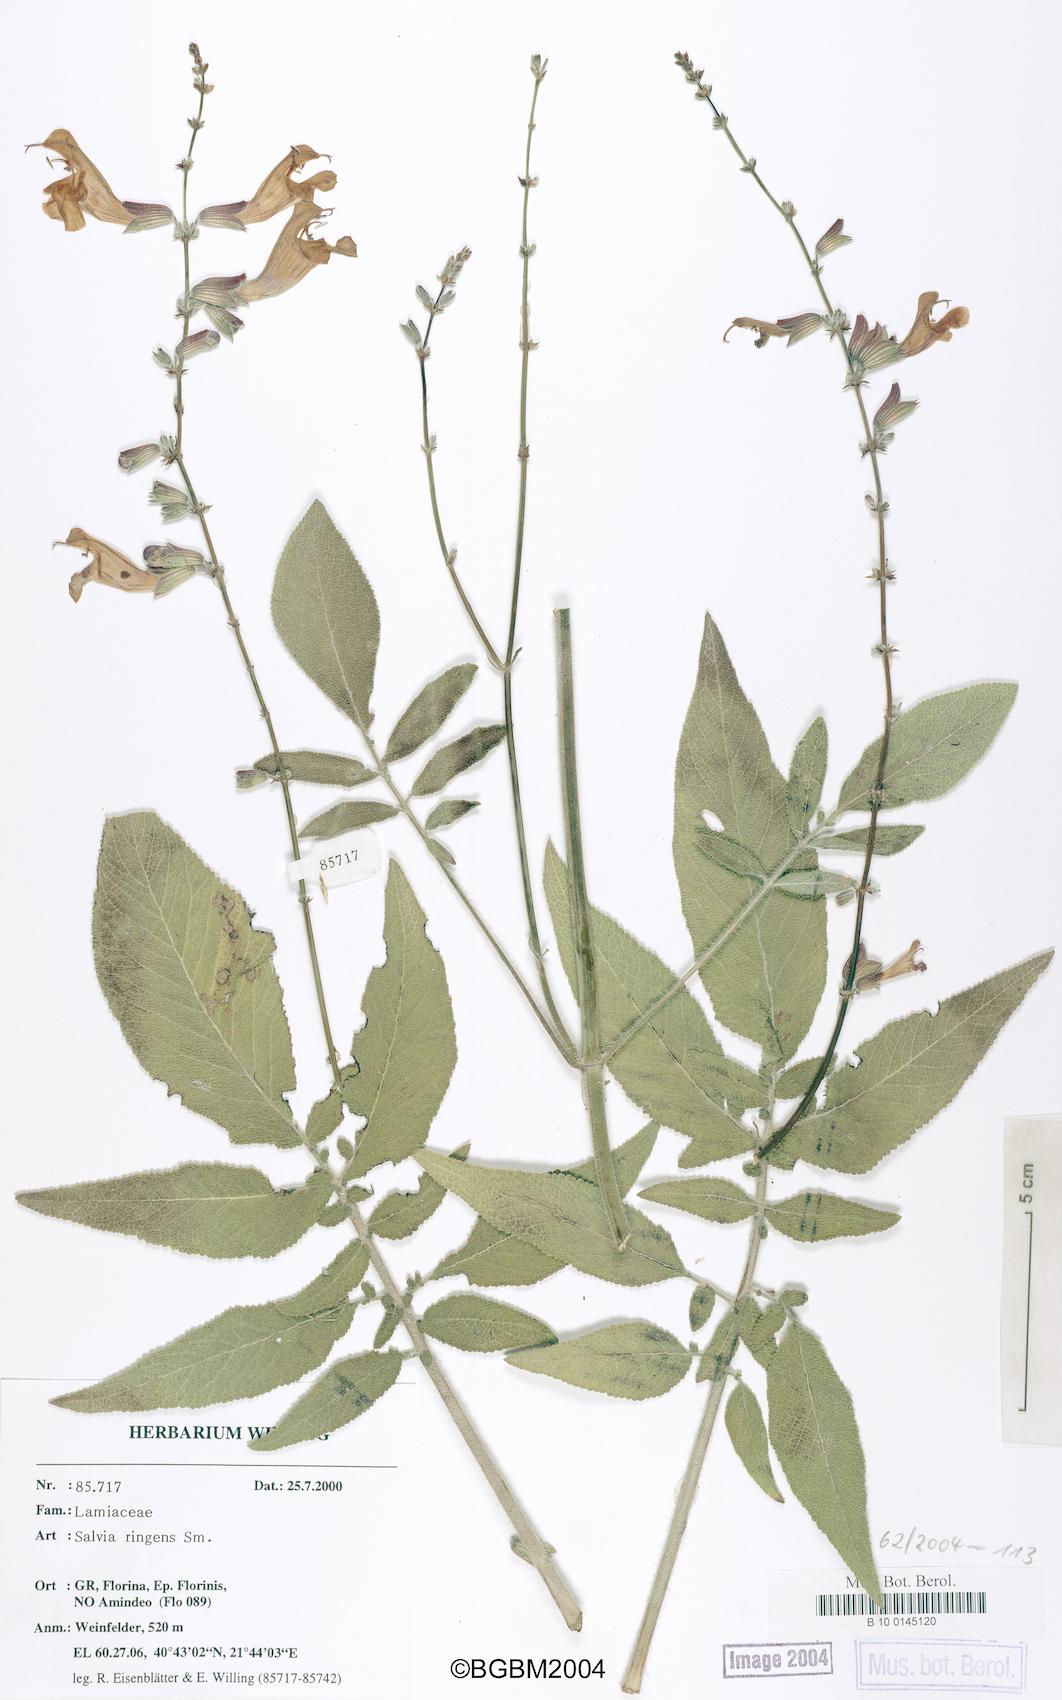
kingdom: Plantae
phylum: Tracheophyta
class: Magnoliopsida
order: Lamiales
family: Lamiaceae
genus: Salvia
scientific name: Salvia ringens
